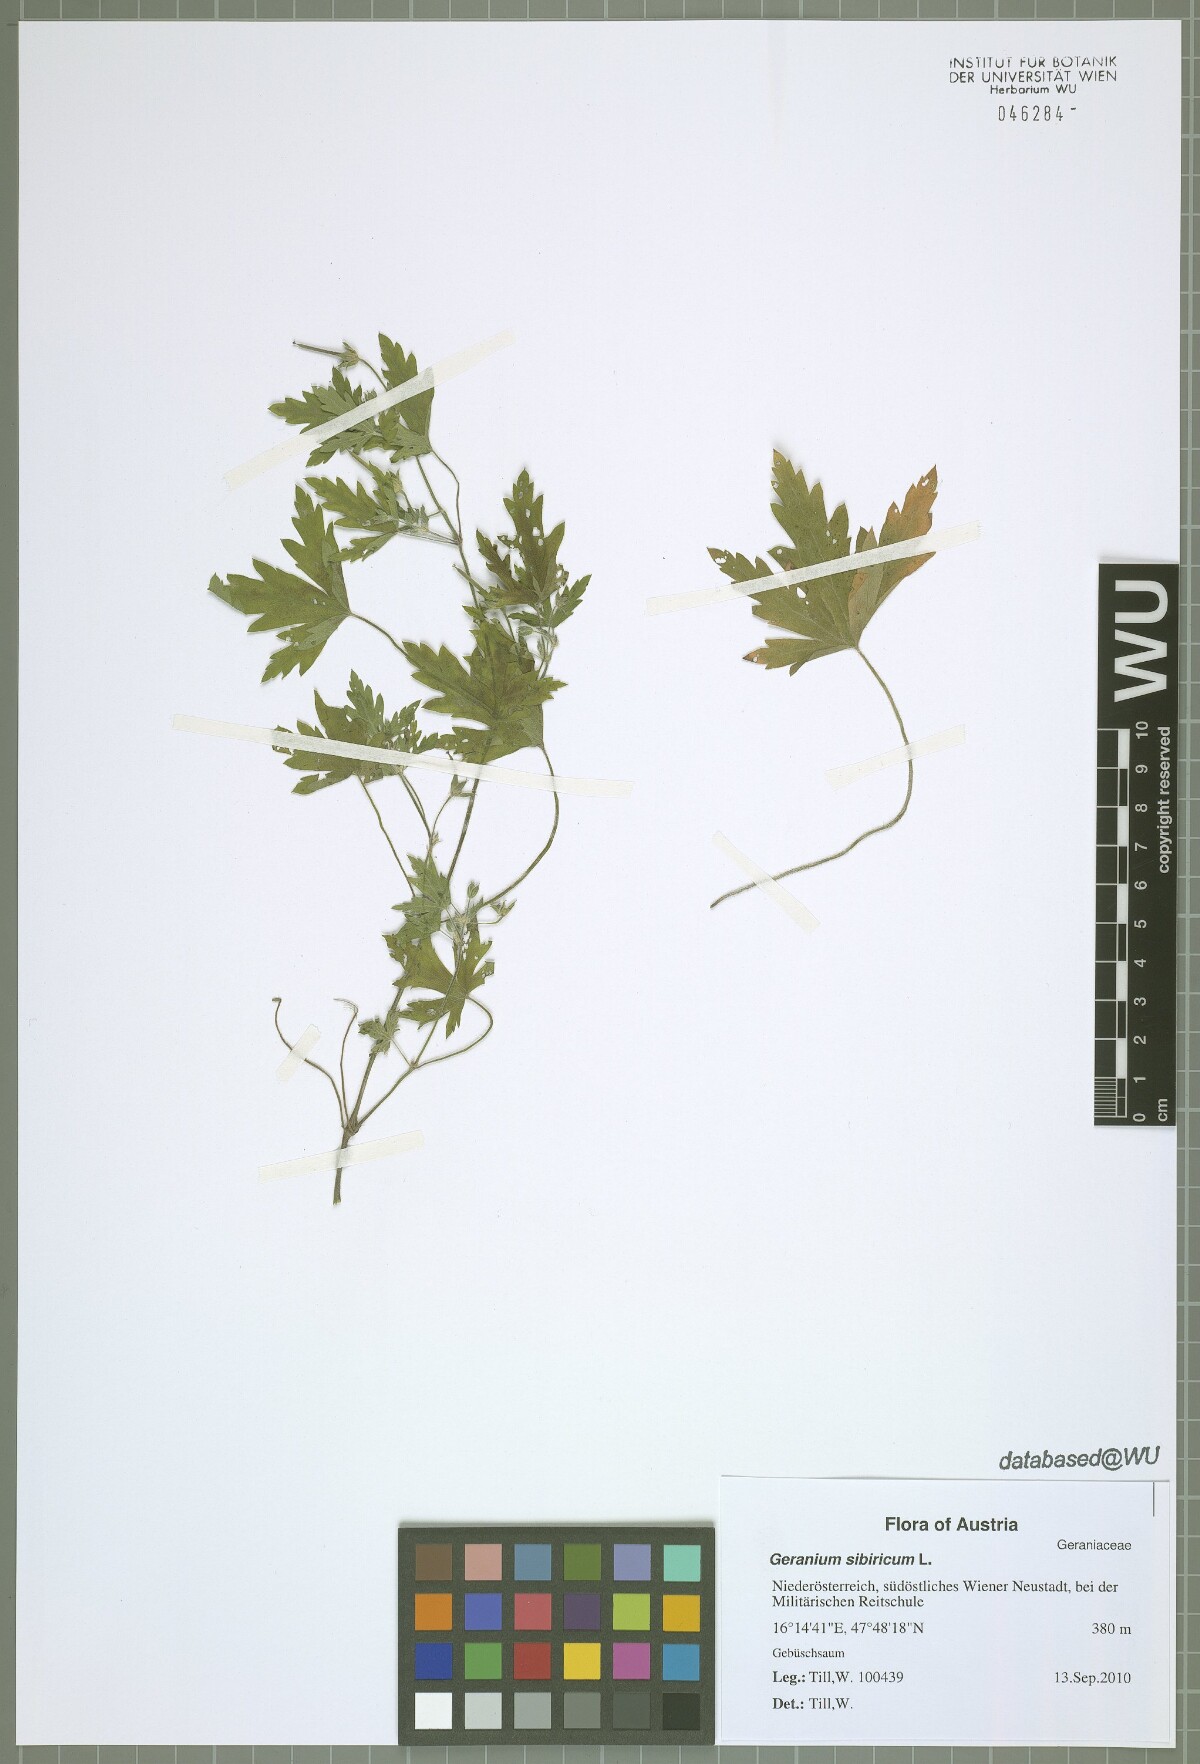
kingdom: Plantae
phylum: Tracheophyta
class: Magnoliopsida
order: Geraniales
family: Geraniaceae
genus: Geranium
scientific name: Geranium sibiricum
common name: Siberian crane's-bill
